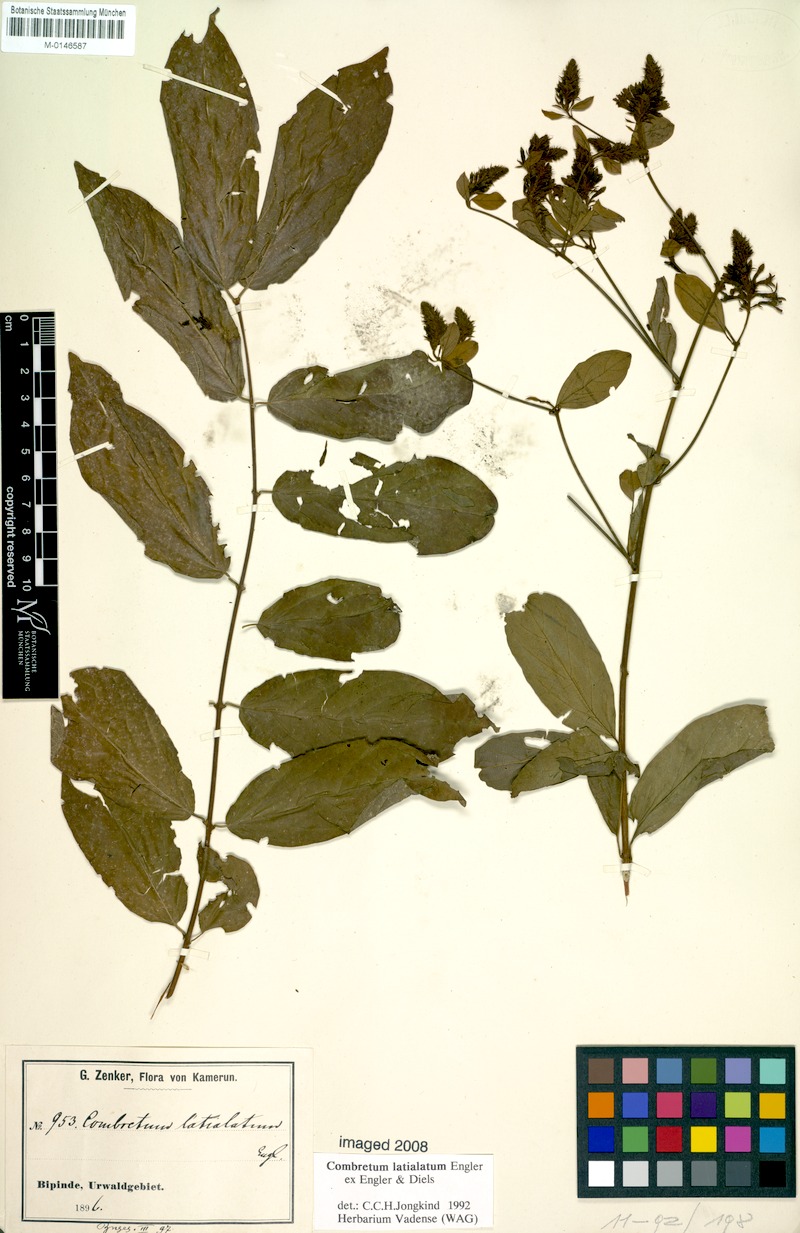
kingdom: Plantae
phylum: Tracheophyta
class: Magnoliopsida
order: Myrtales
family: Combretaceae
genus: Combretum
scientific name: Combretum latialatum
